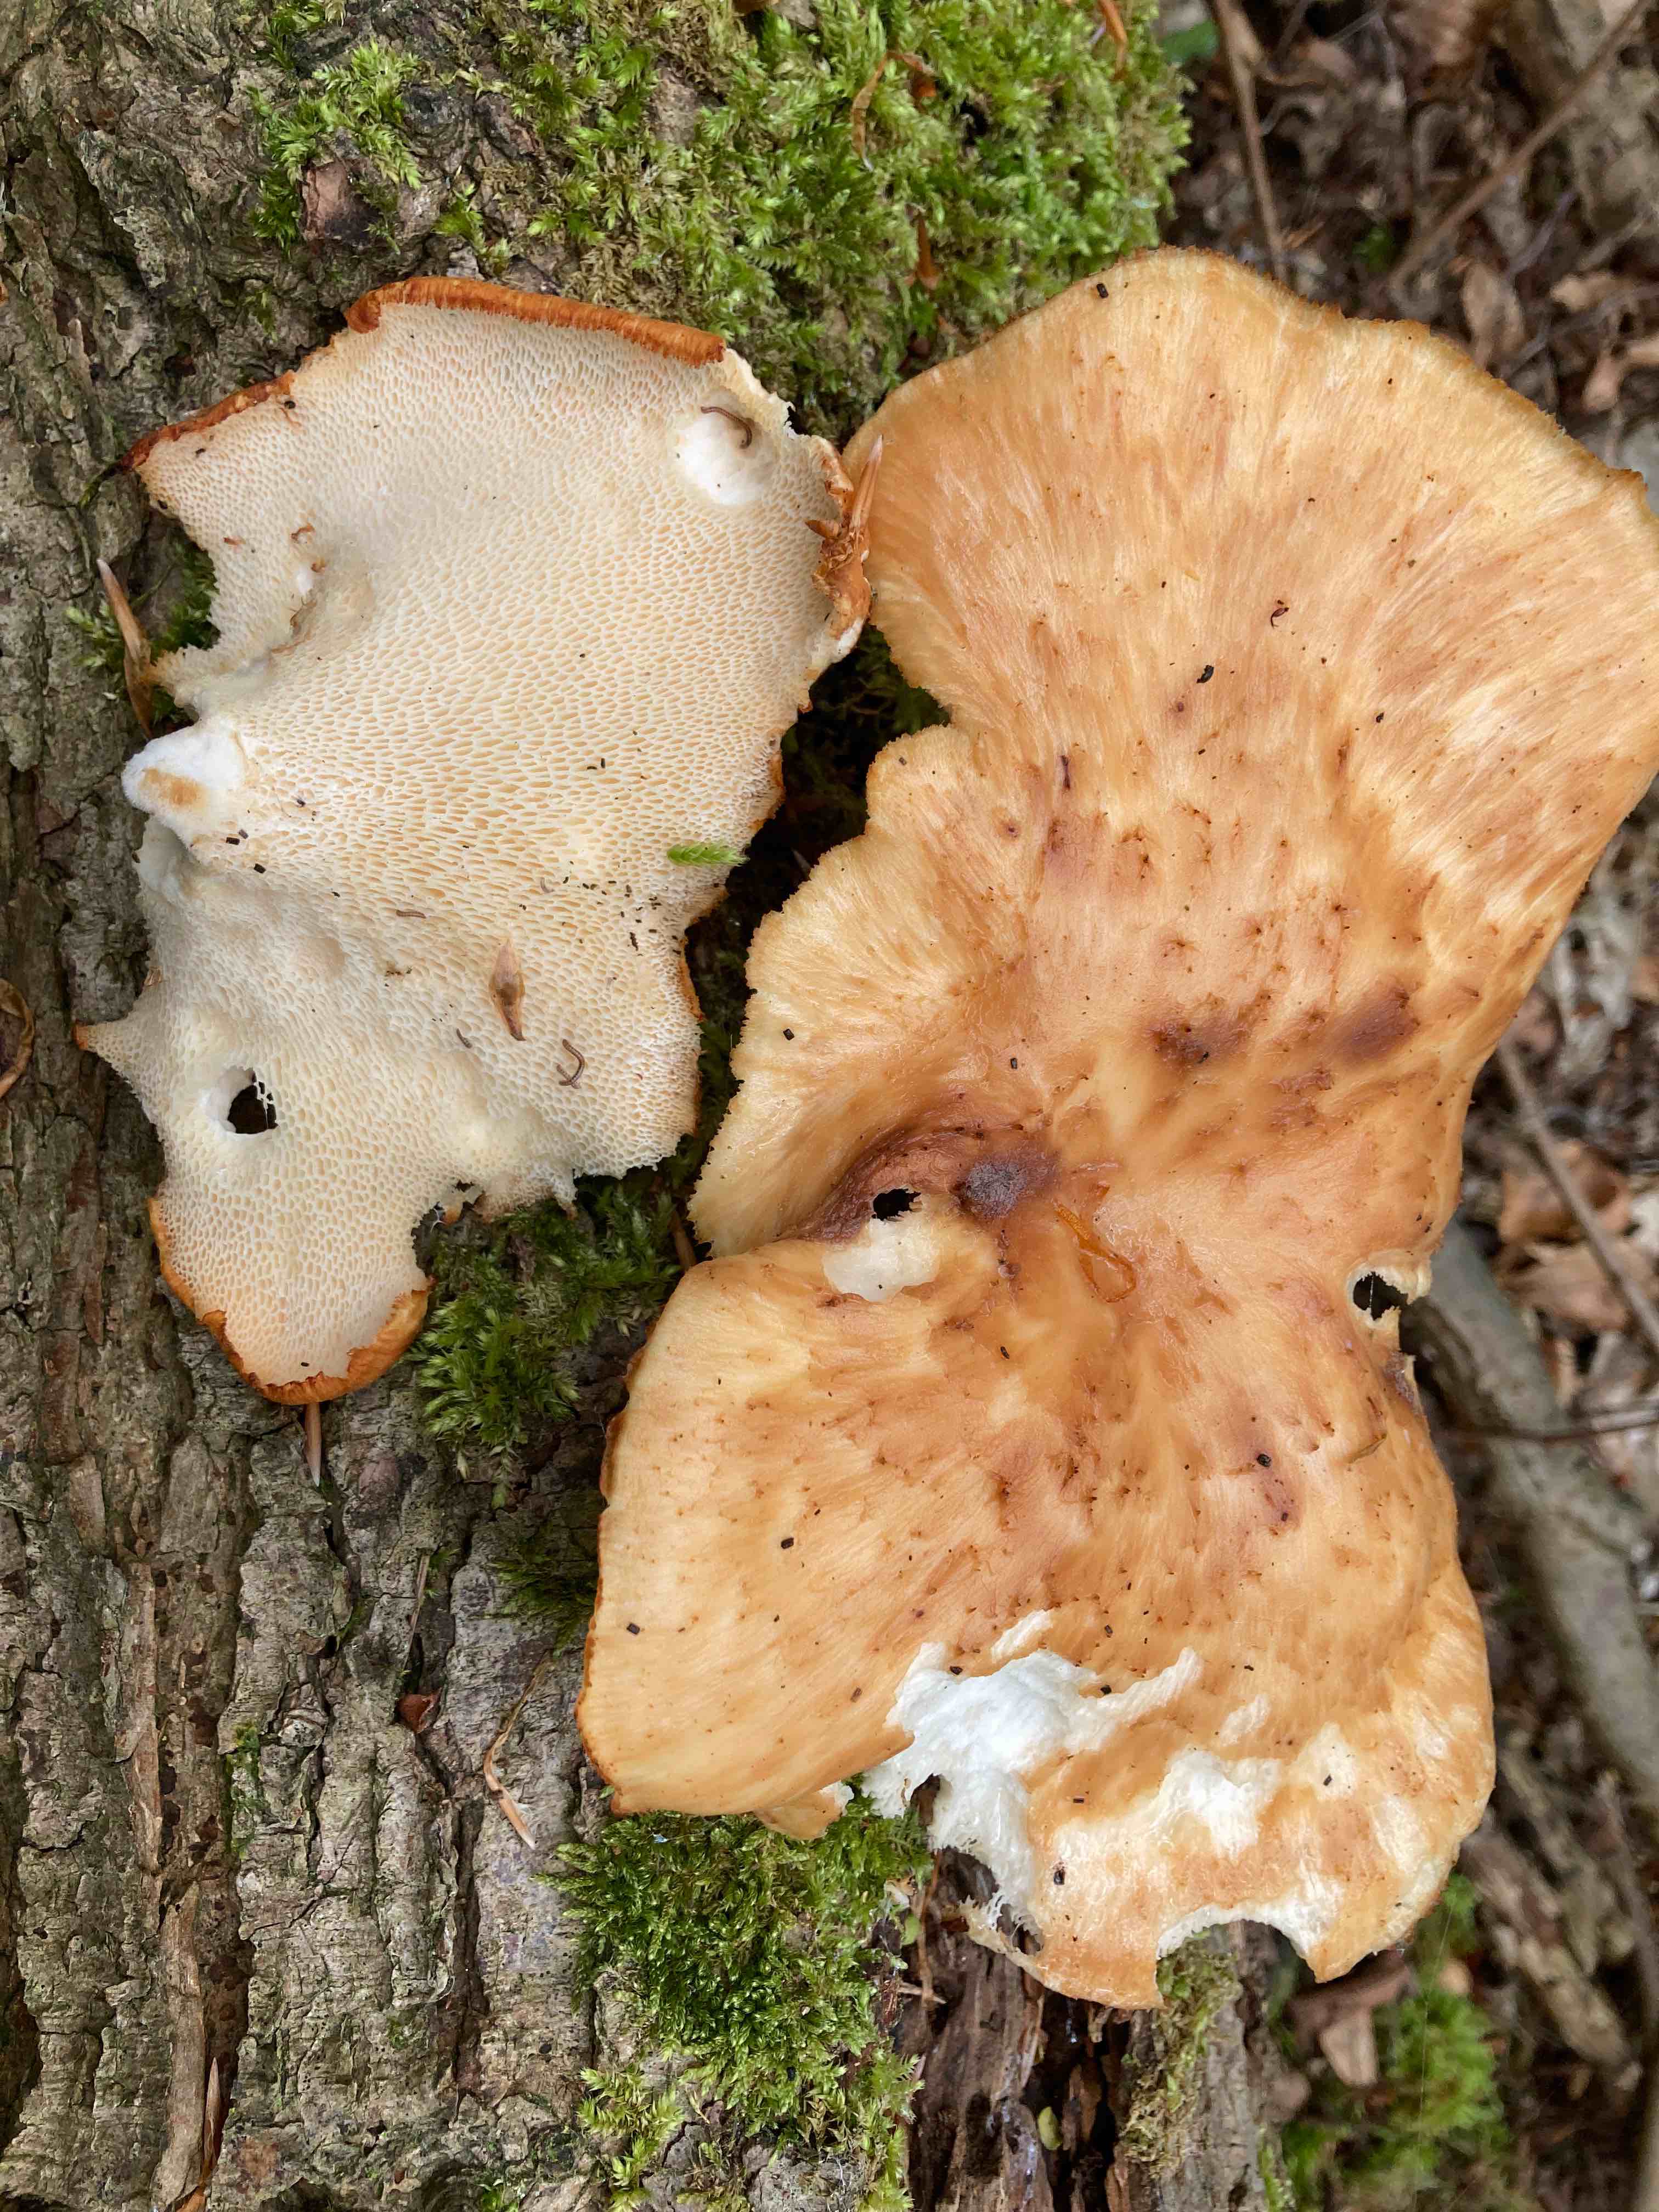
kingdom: Fungi
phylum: Basidiomycota
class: Agaricomycetes
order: Polyporales
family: Polyporaceae
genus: Polyporus
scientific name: Polyporus tuberaster
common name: knoldet stilkporesvamp
